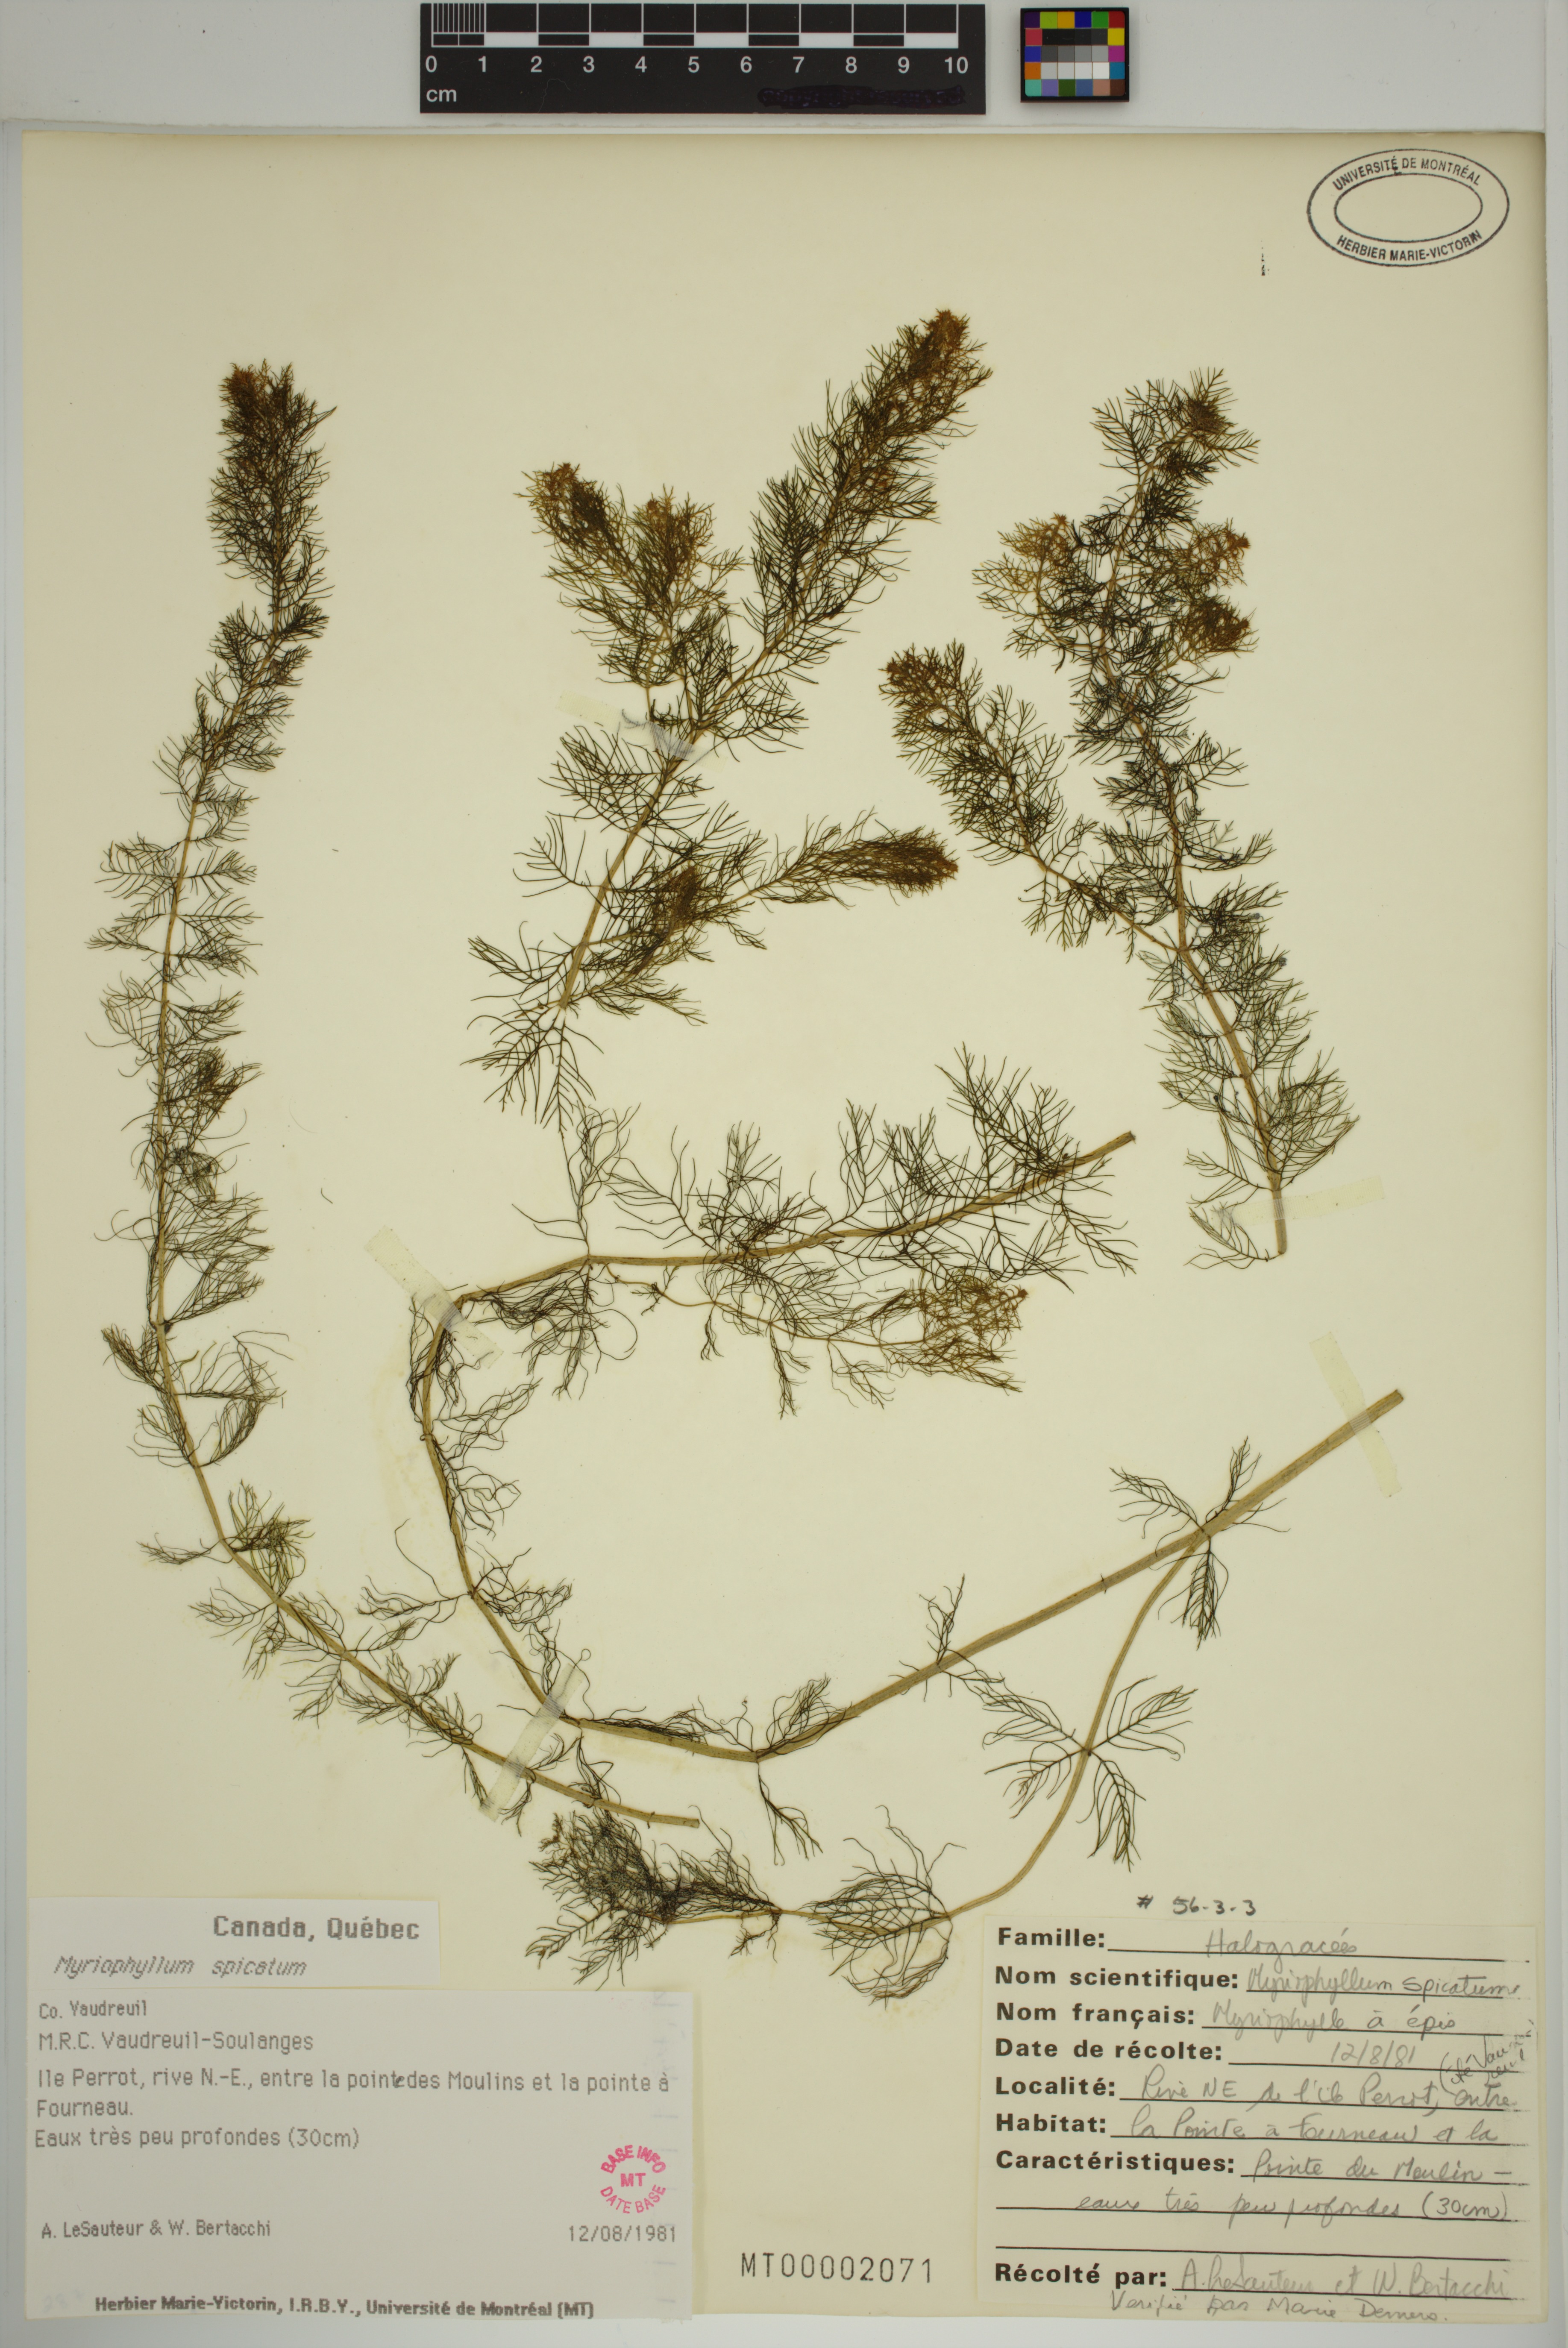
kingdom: Plantae
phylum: Tracheophyta
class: Magnoliopsida
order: Saxifragales
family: Haloragaceae
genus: Myriophyllum
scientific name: Myriophyllum spicatum
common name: Spiked water-milfoil
